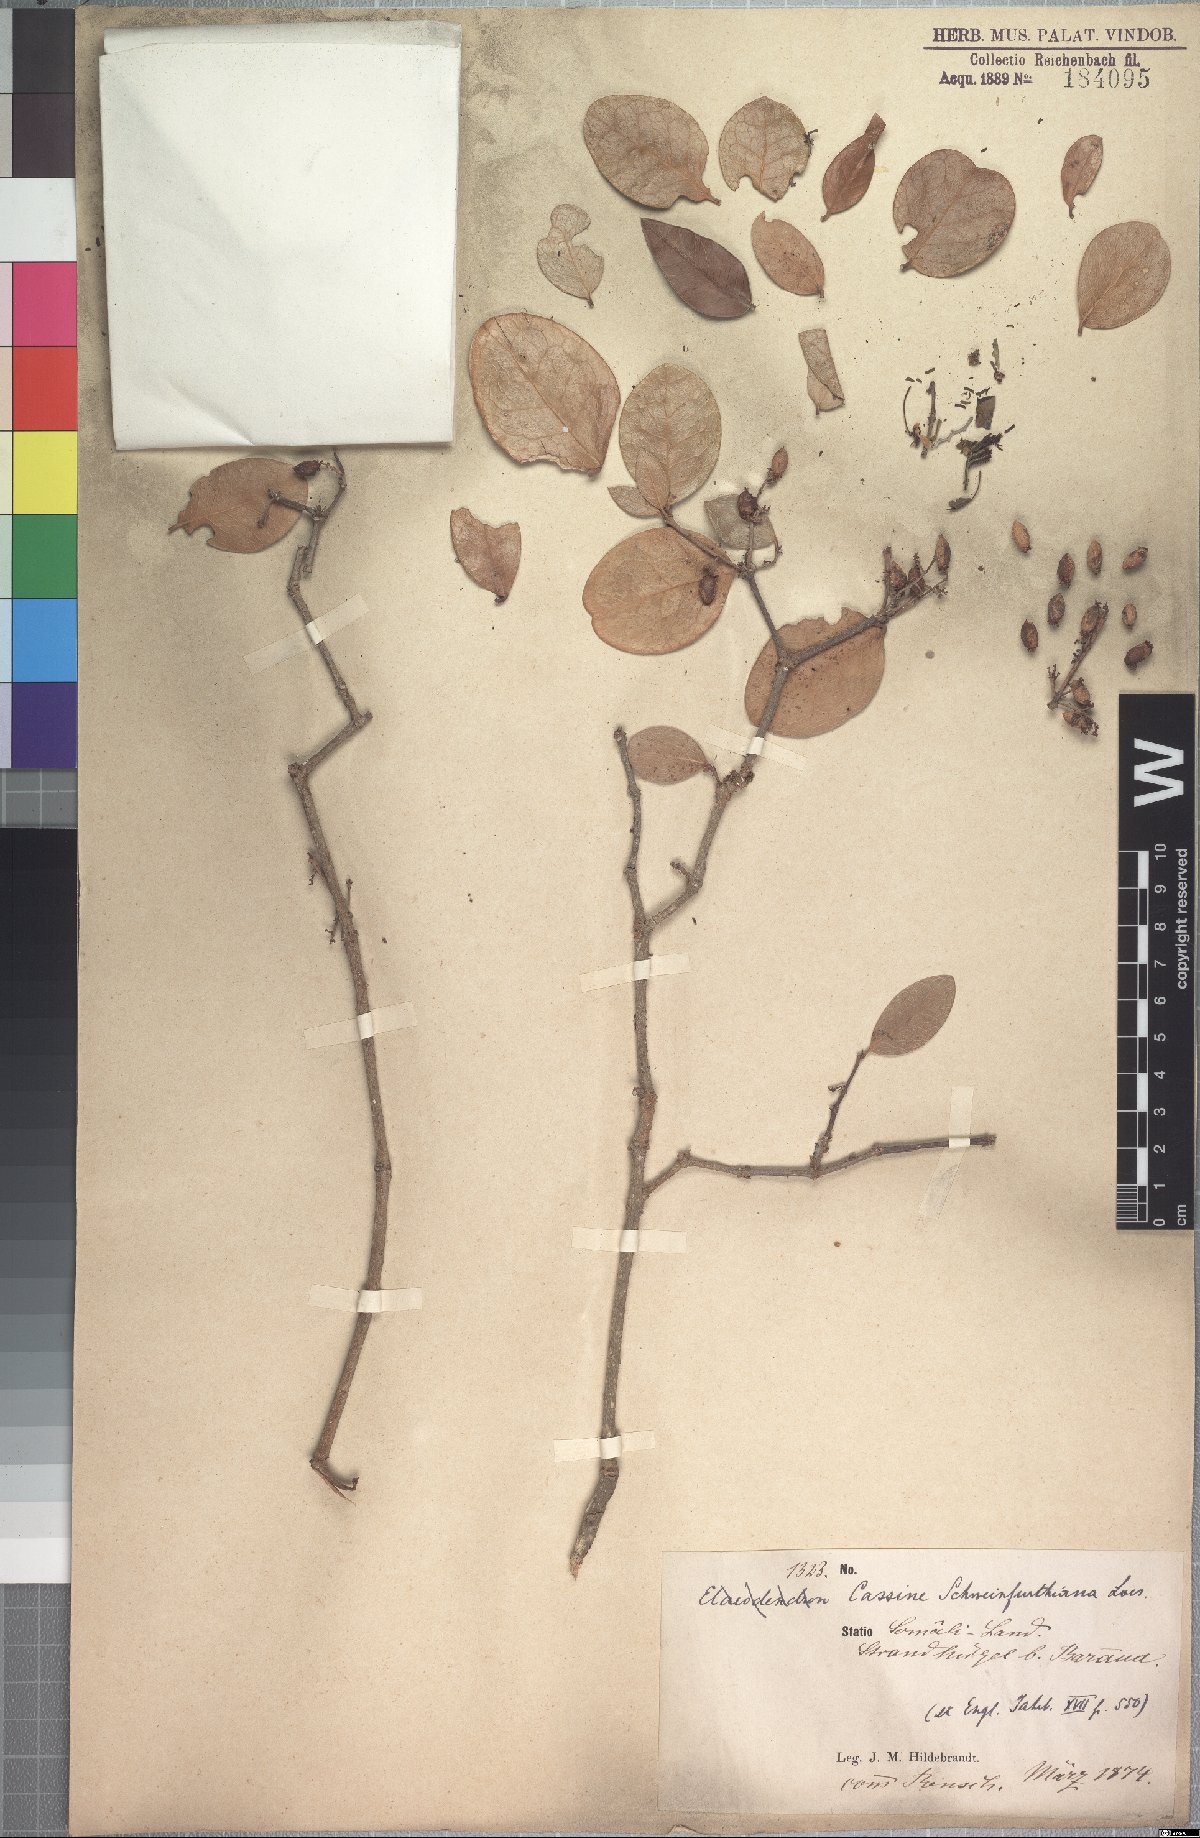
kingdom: Plantae
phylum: Tracheophyta
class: Magnoliopsida
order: Celastrales
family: Celastraceae
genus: Elaeodendron
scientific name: Elaeodendron schweinfurthianum
